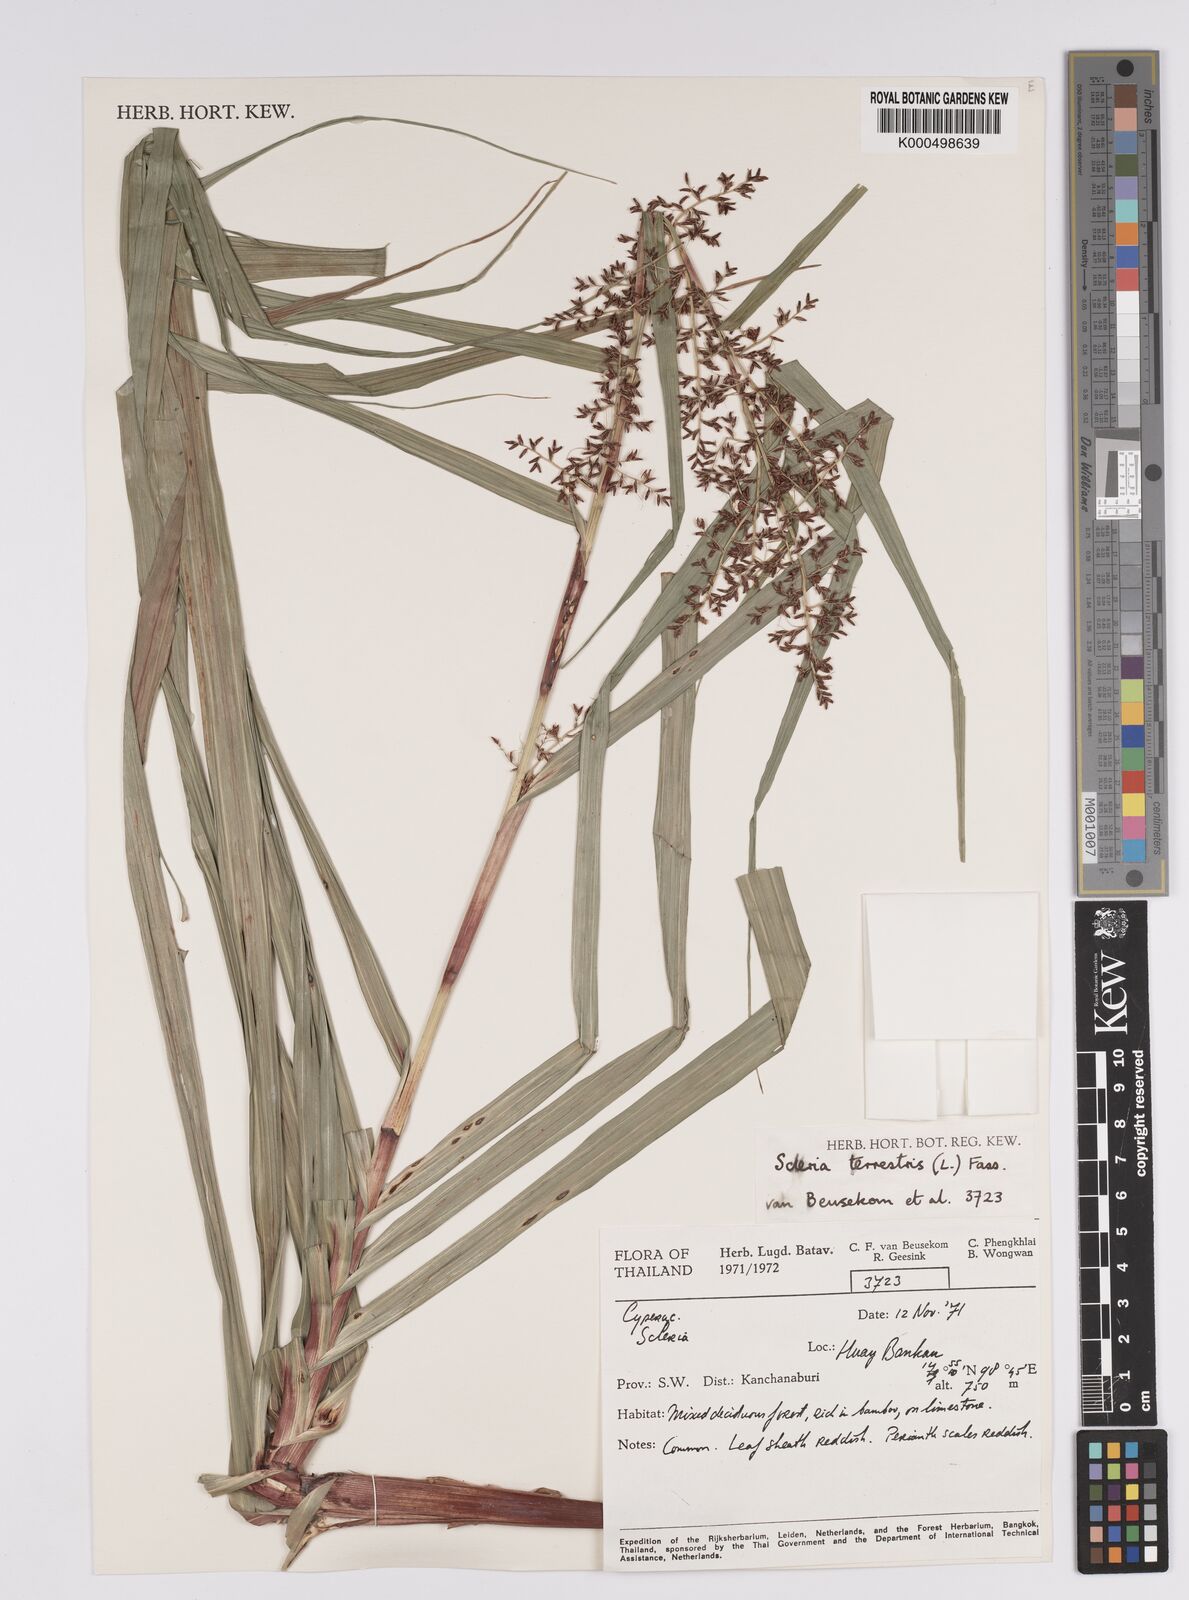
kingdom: Plantae
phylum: Tracheophyta
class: Liliopsida
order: Poales
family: Cyperaceae
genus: Scleria
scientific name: Scleria terrestris
